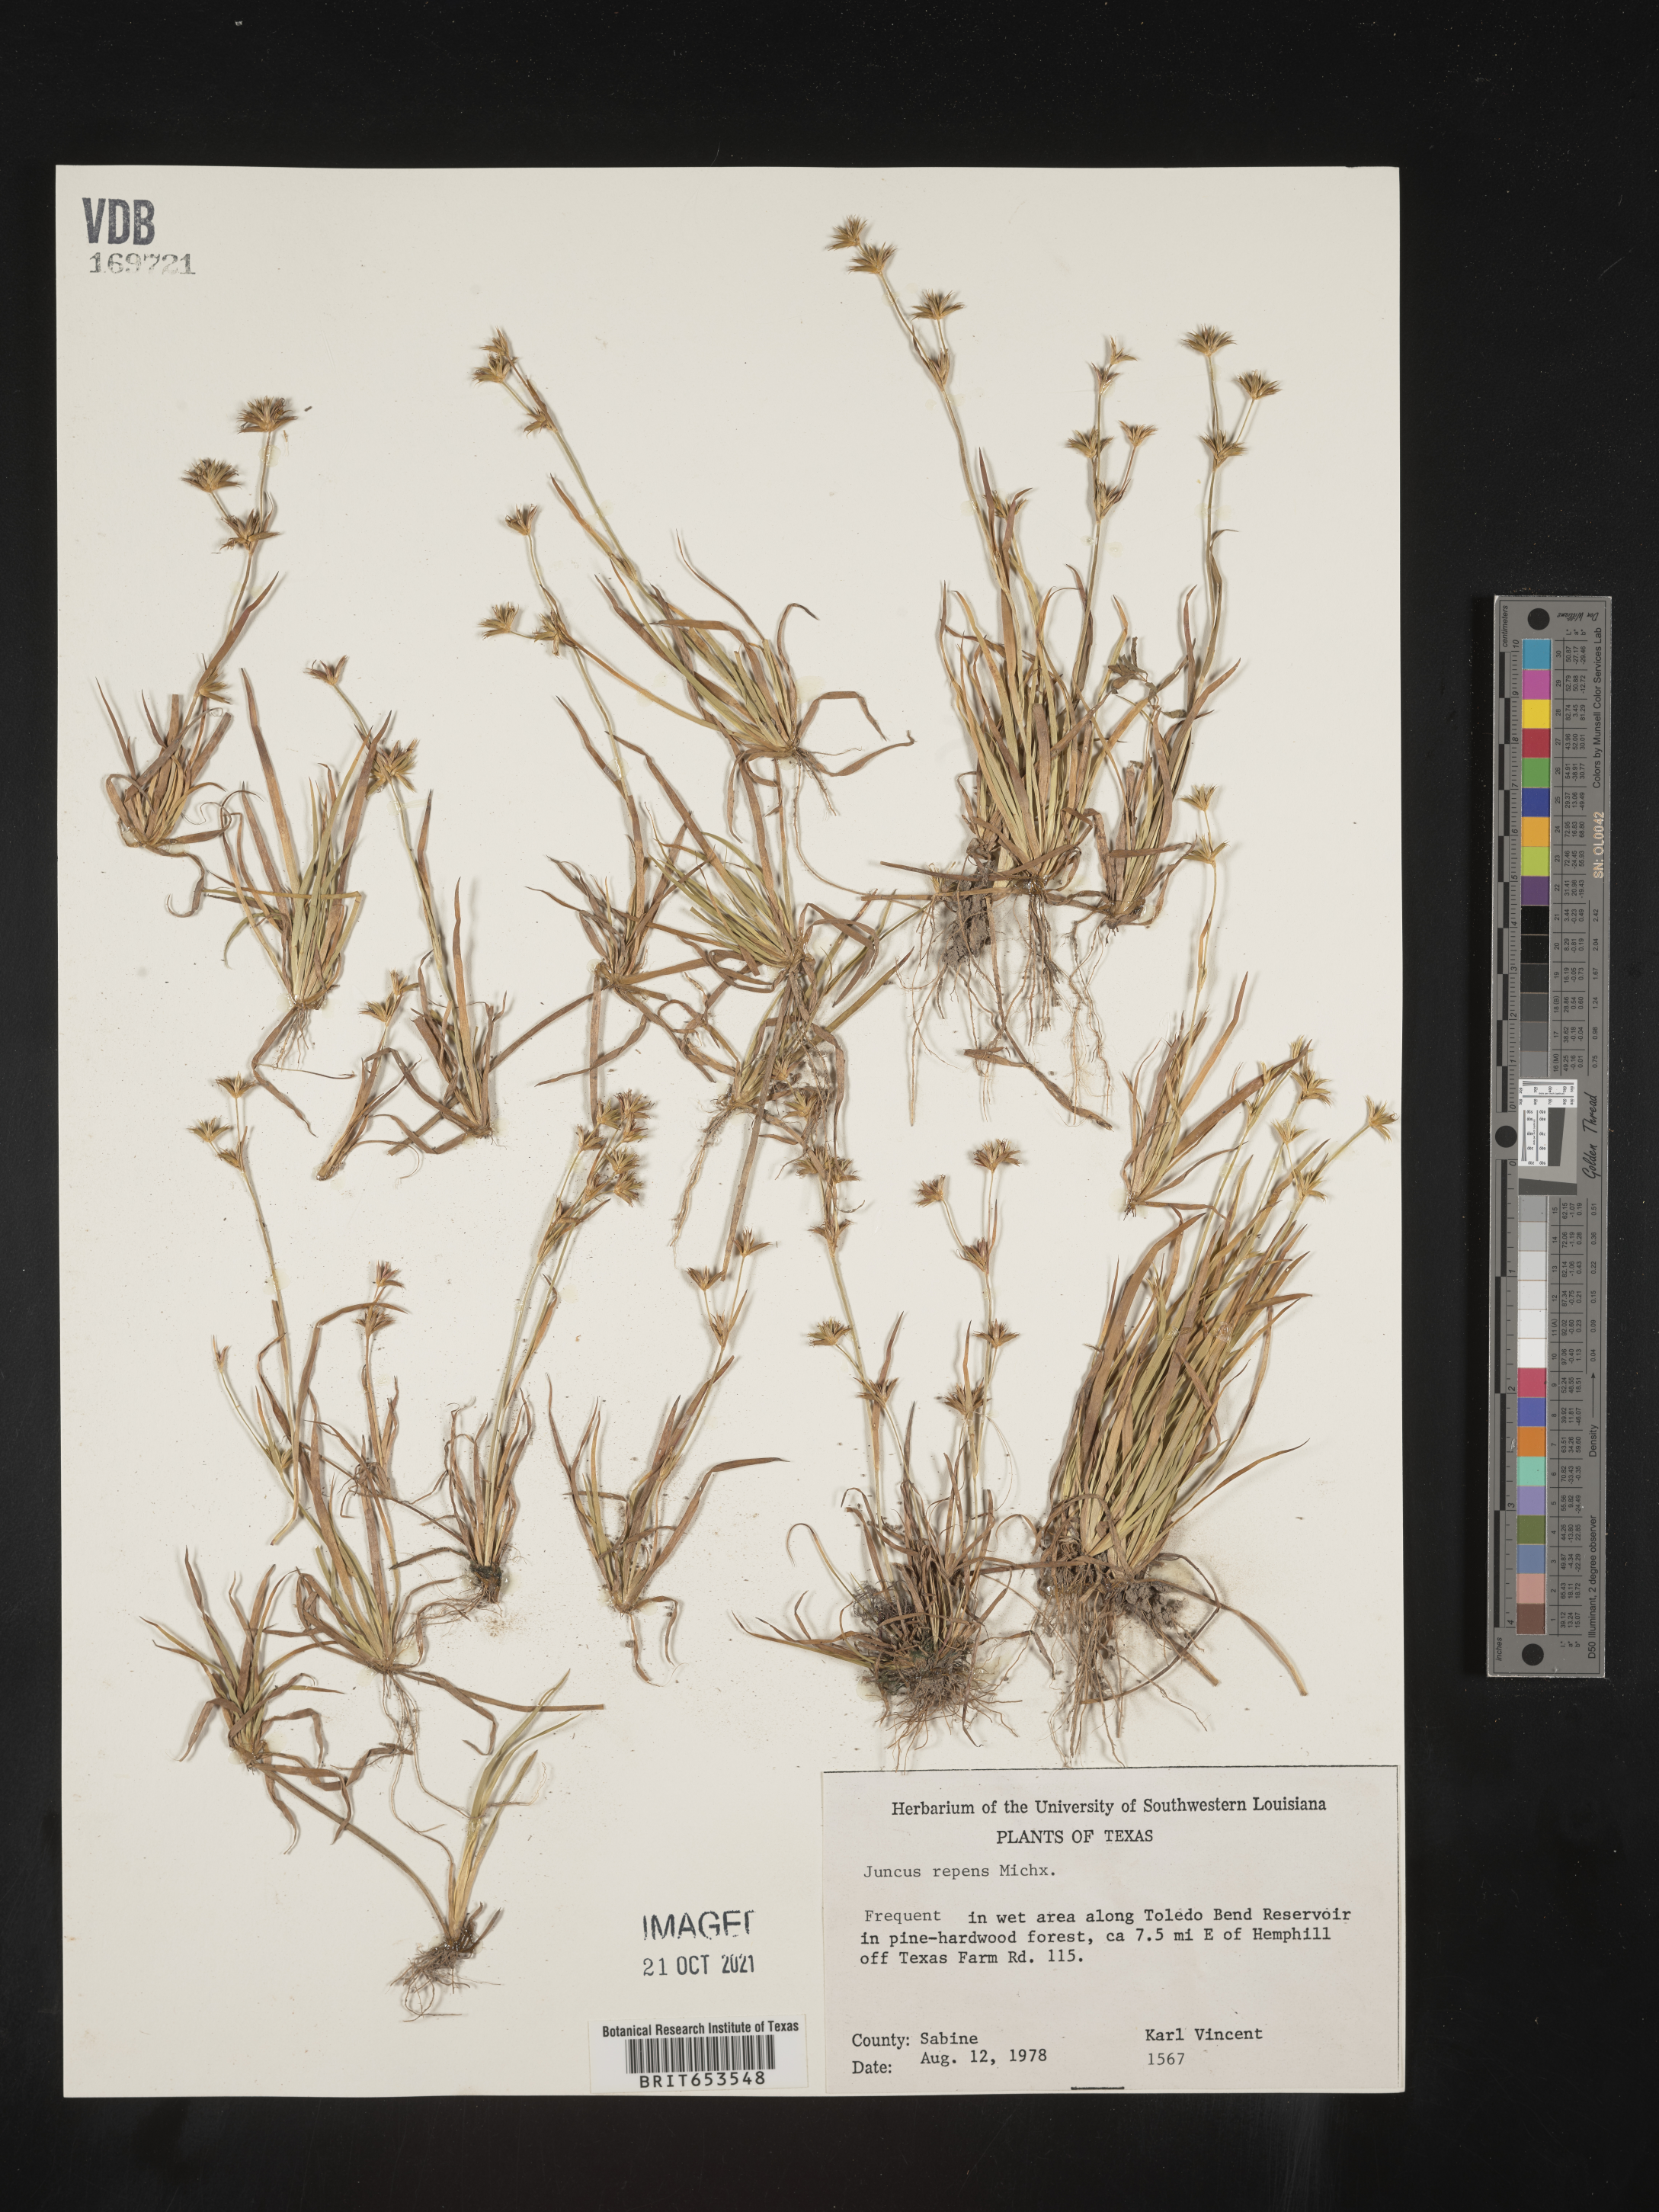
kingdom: Plantae
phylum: Tracheophyta
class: Liliopsida
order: Poales
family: Juncaceae
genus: Juncus
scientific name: Juncus repens
